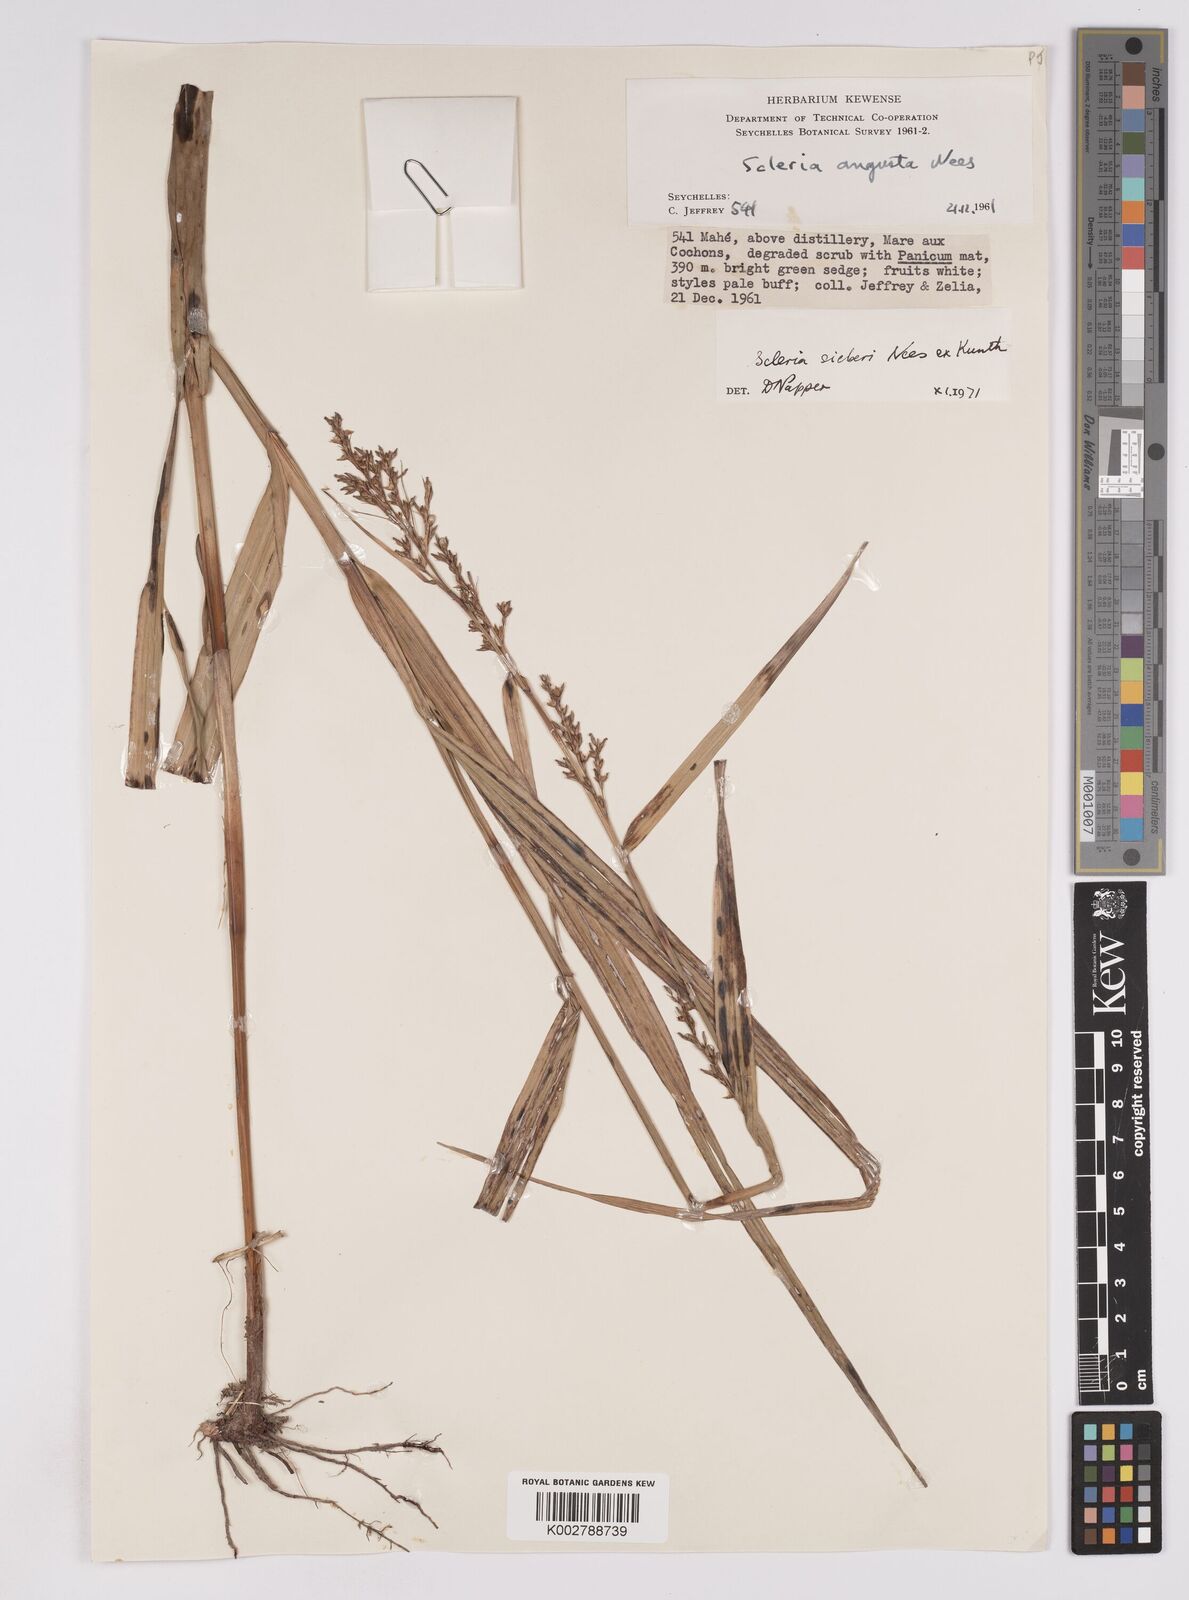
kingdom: Plantae
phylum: Tracheophyta
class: Liliopsida
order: Poales
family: Cyperaceae
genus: Scleria
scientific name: Scleria gaertneri
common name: Cortadera blanca
